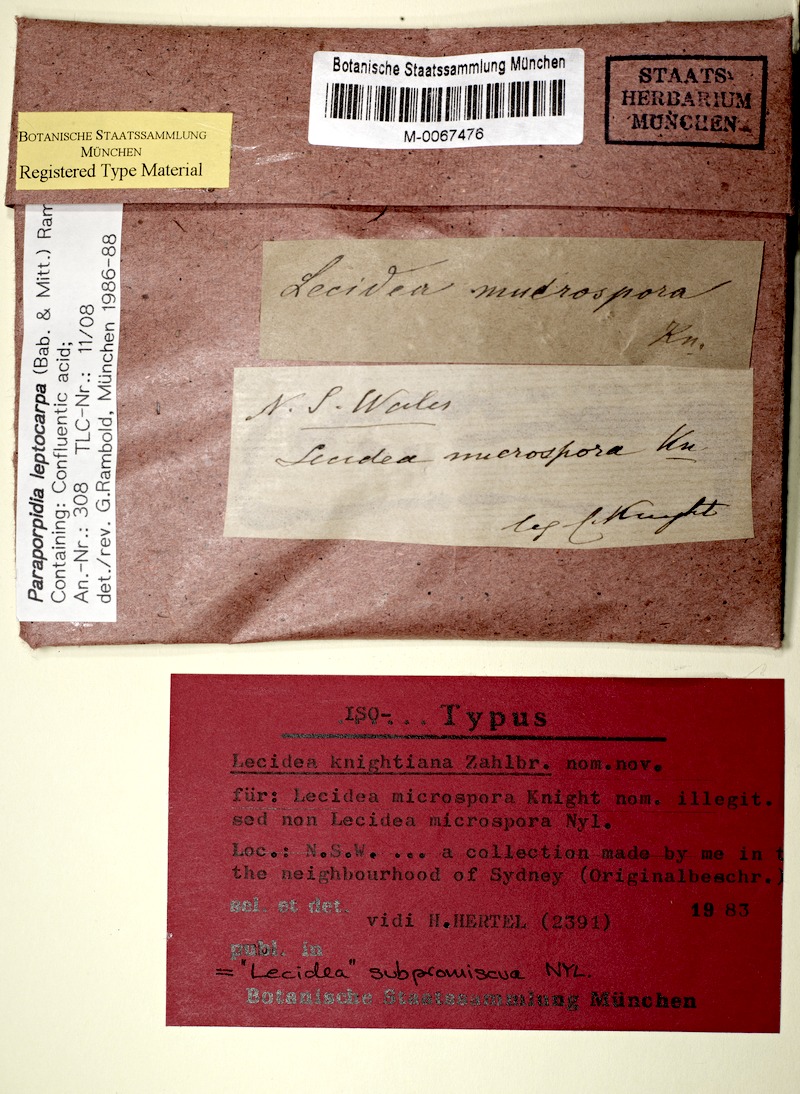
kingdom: Fungi
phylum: Ascomycota
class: Lecanoromycetes
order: Lecideales
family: Lecideaceae
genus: Paraporpidia
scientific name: Paraporpidia leptocarpa
